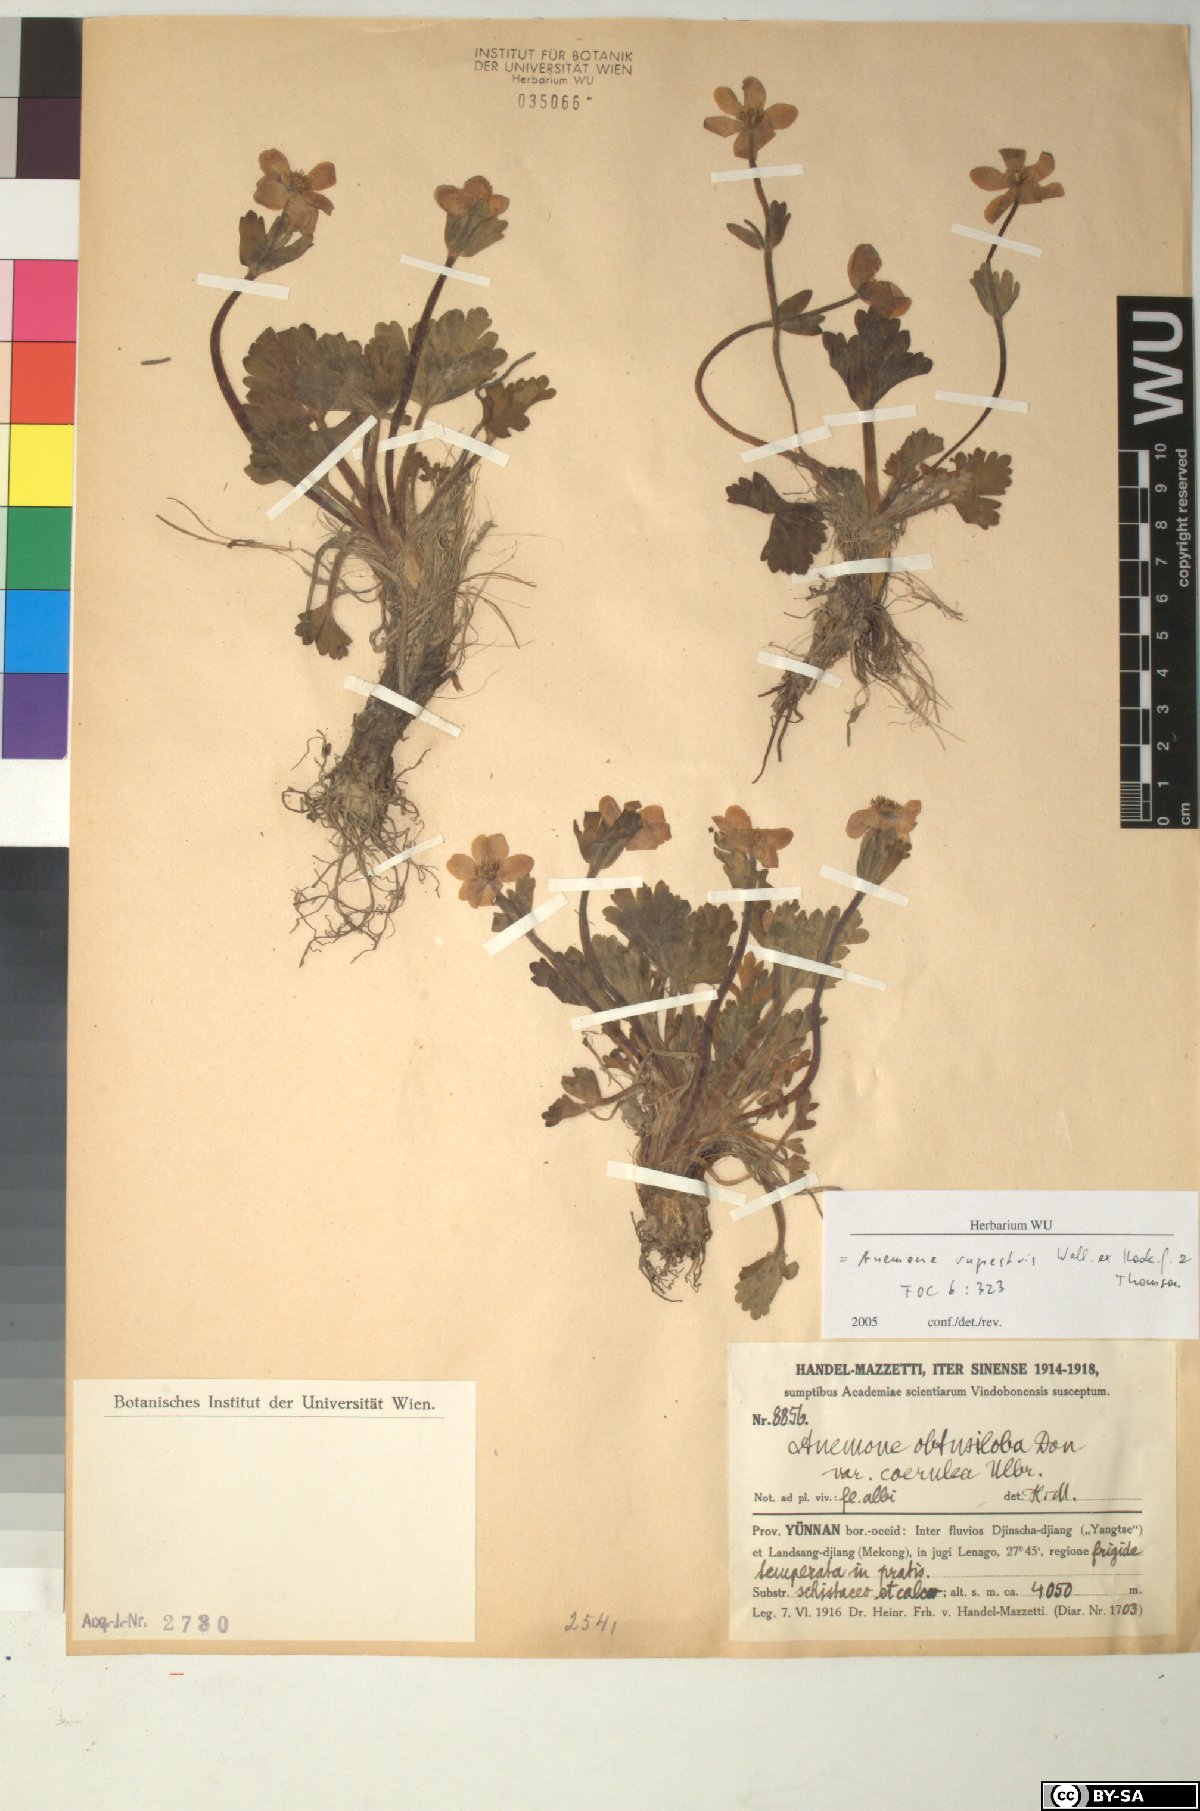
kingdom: Plantae
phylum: Tracheophyta
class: Magnoliopsida
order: Ranunculales
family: Ranunculaceae
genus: Anemonastrum
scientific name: Anemonastrum rupestre
